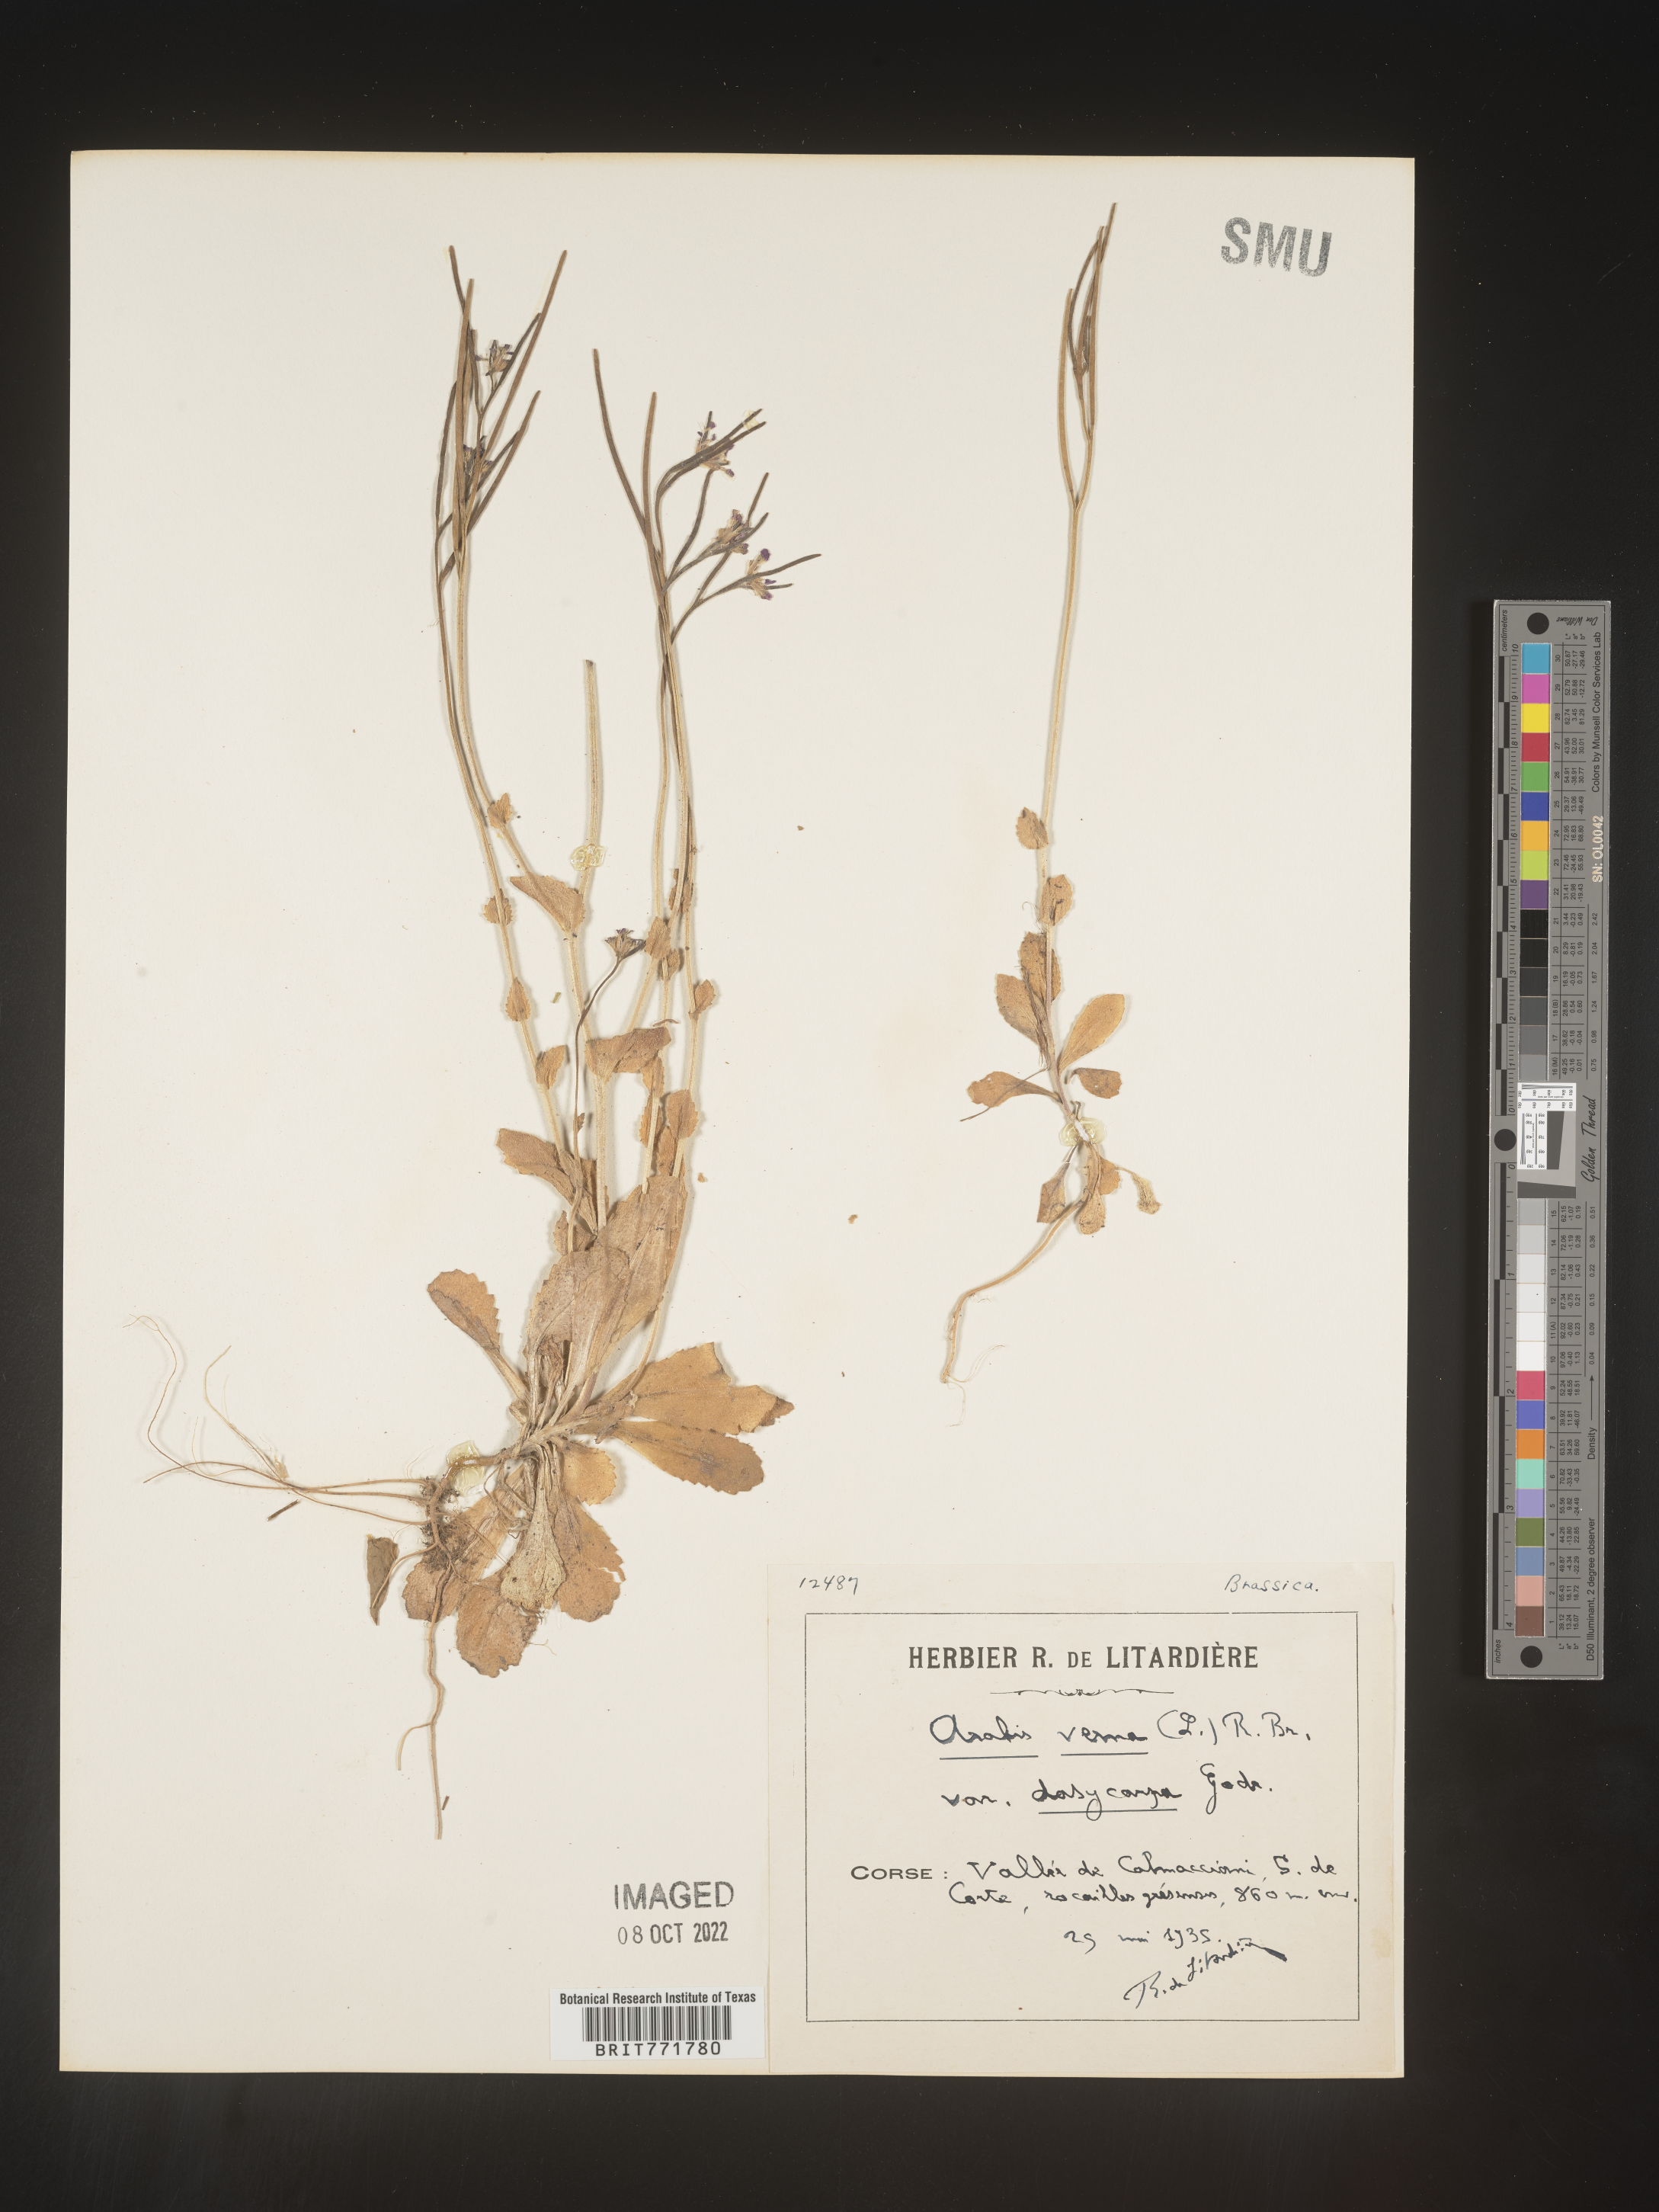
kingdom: Plantae
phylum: Tracheophyta
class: Magnoliopsida
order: Brassicales
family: Brassicaceae
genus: Arabis
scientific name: Arabis
